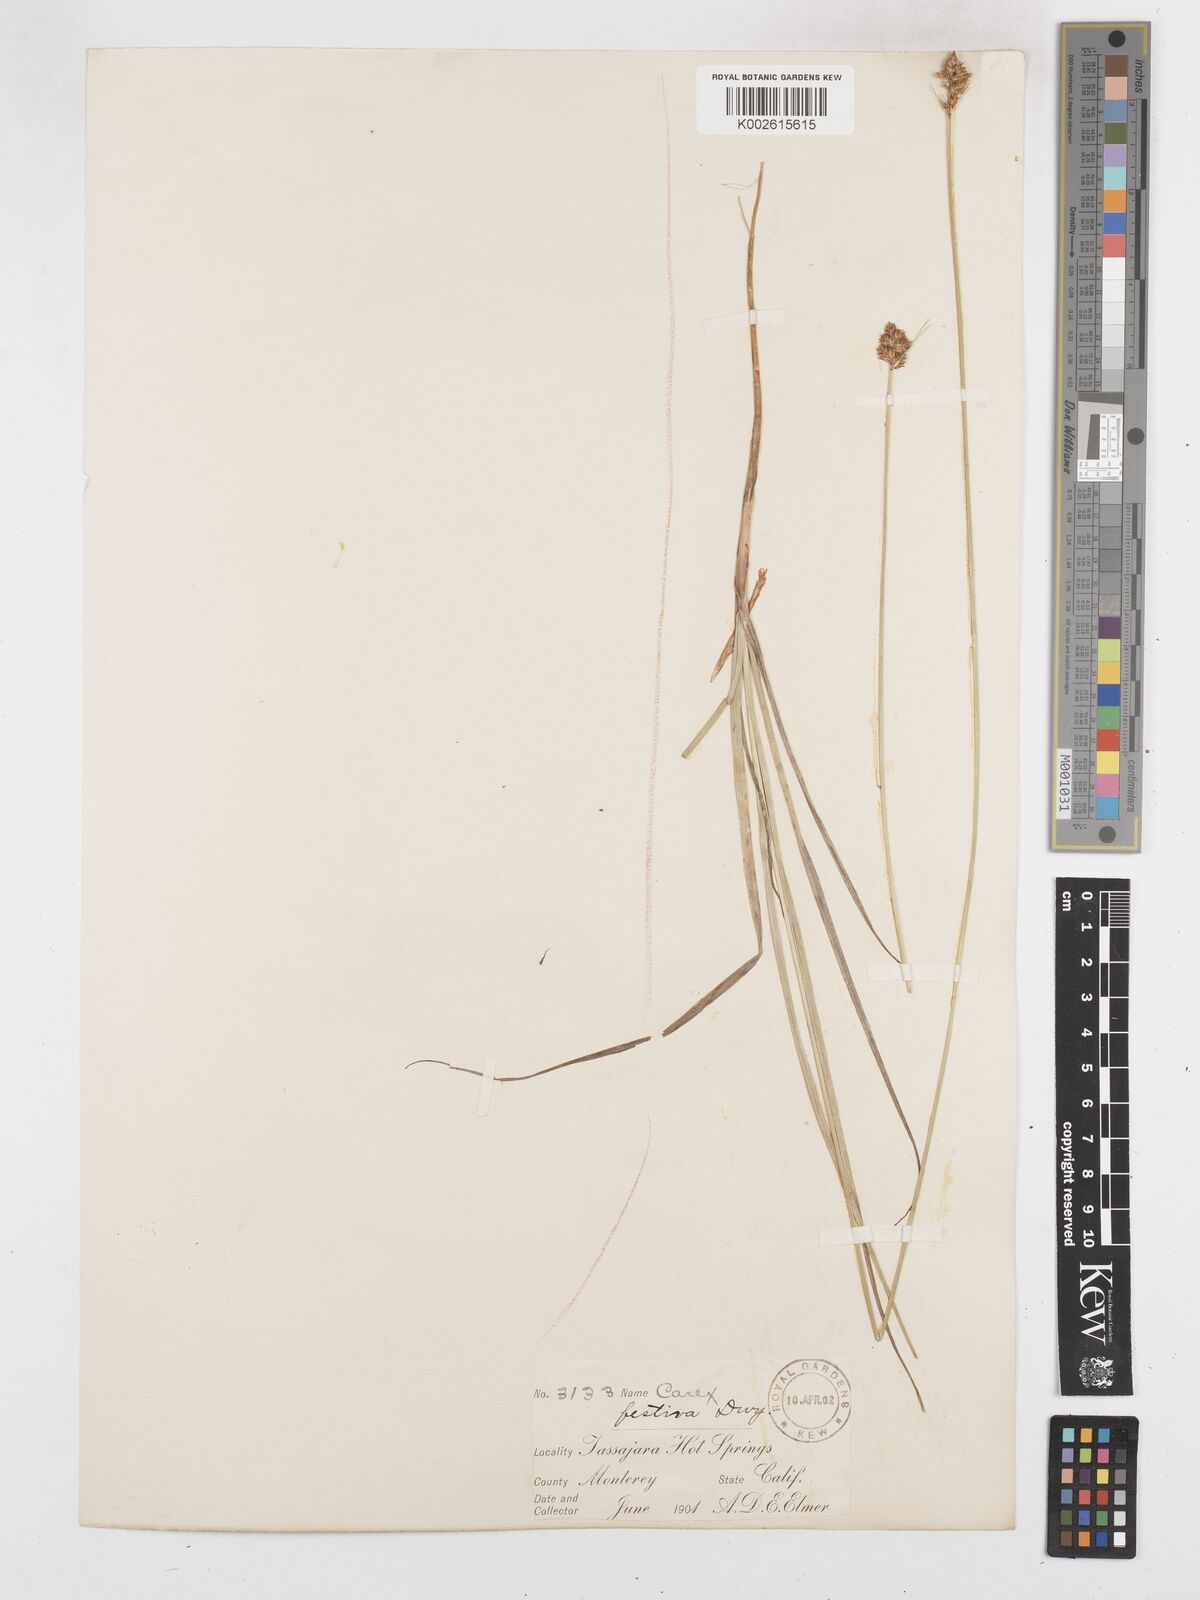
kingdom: Plantae
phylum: Tracheophyta
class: Liliopsida
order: Poales
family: Cyperaceae
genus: Carex
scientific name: Carex harfordii
